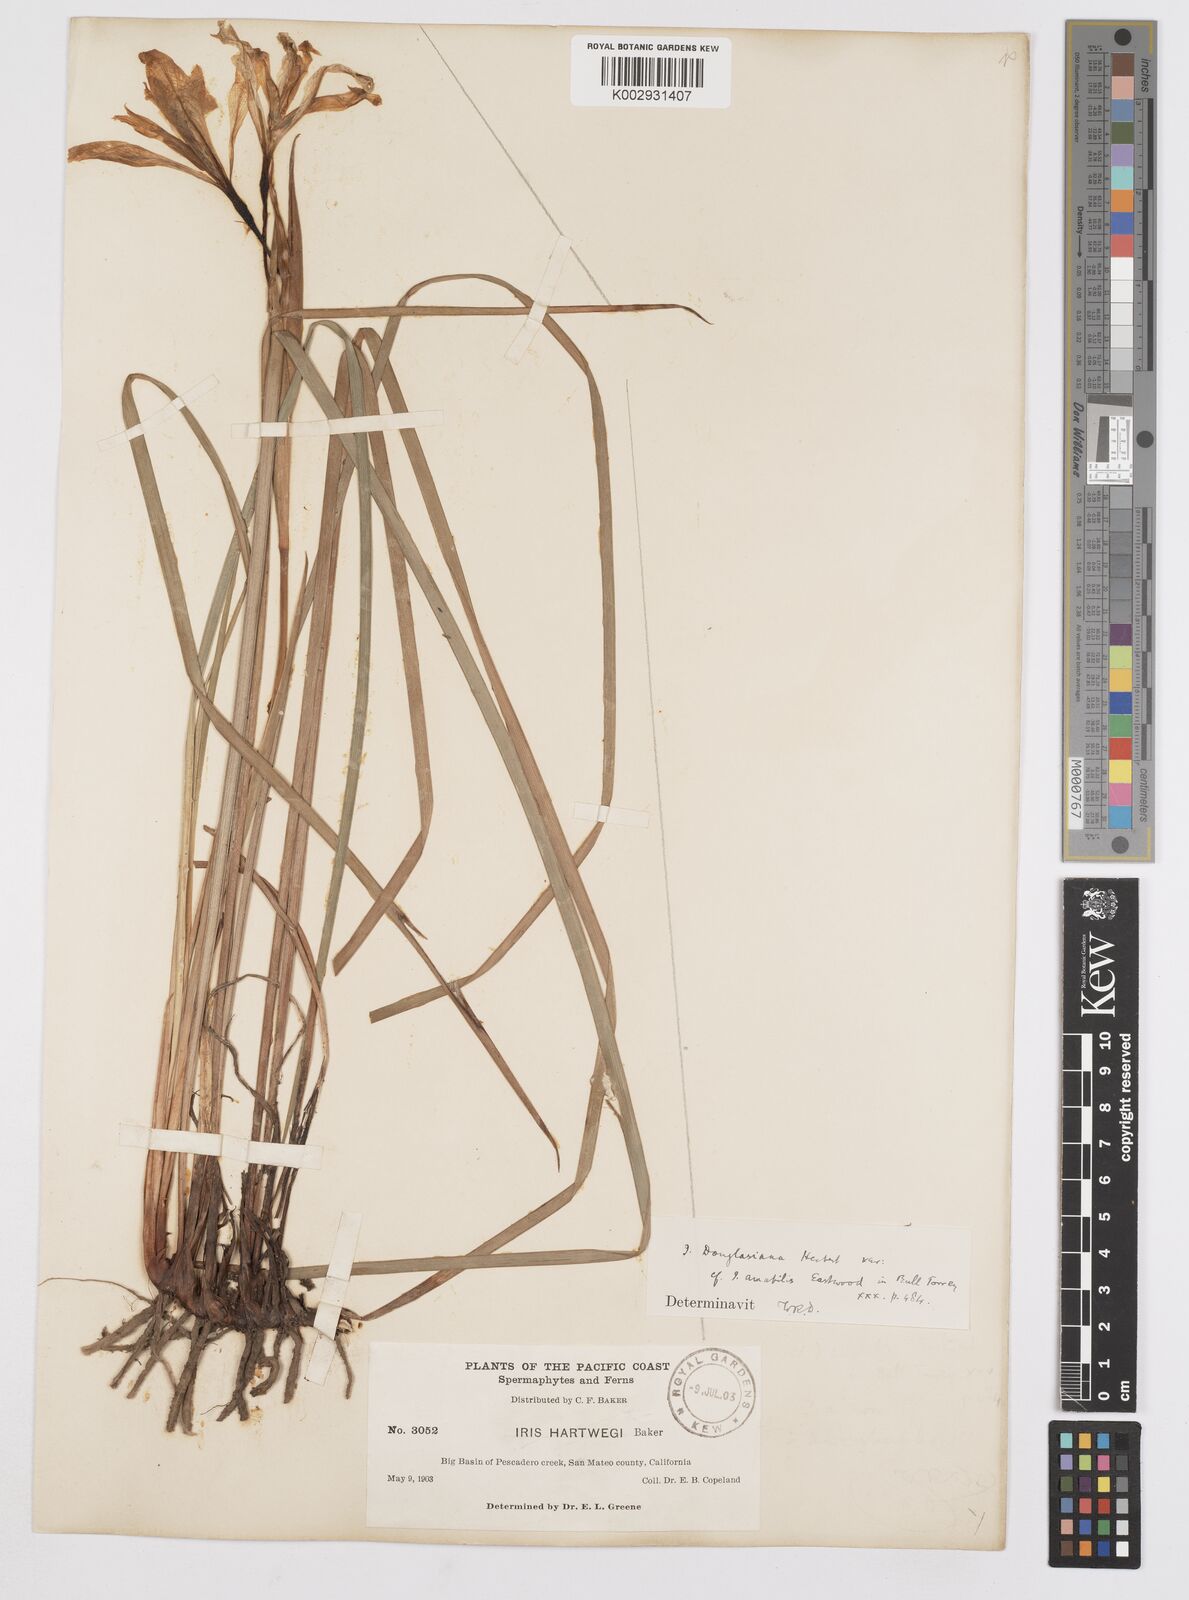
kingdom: Plantae
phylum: Tracheophyta
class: Liliopsida
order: Asparagales
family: Iridaceae
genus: Iris
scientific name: Iris douglasiana
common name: Marin iris
